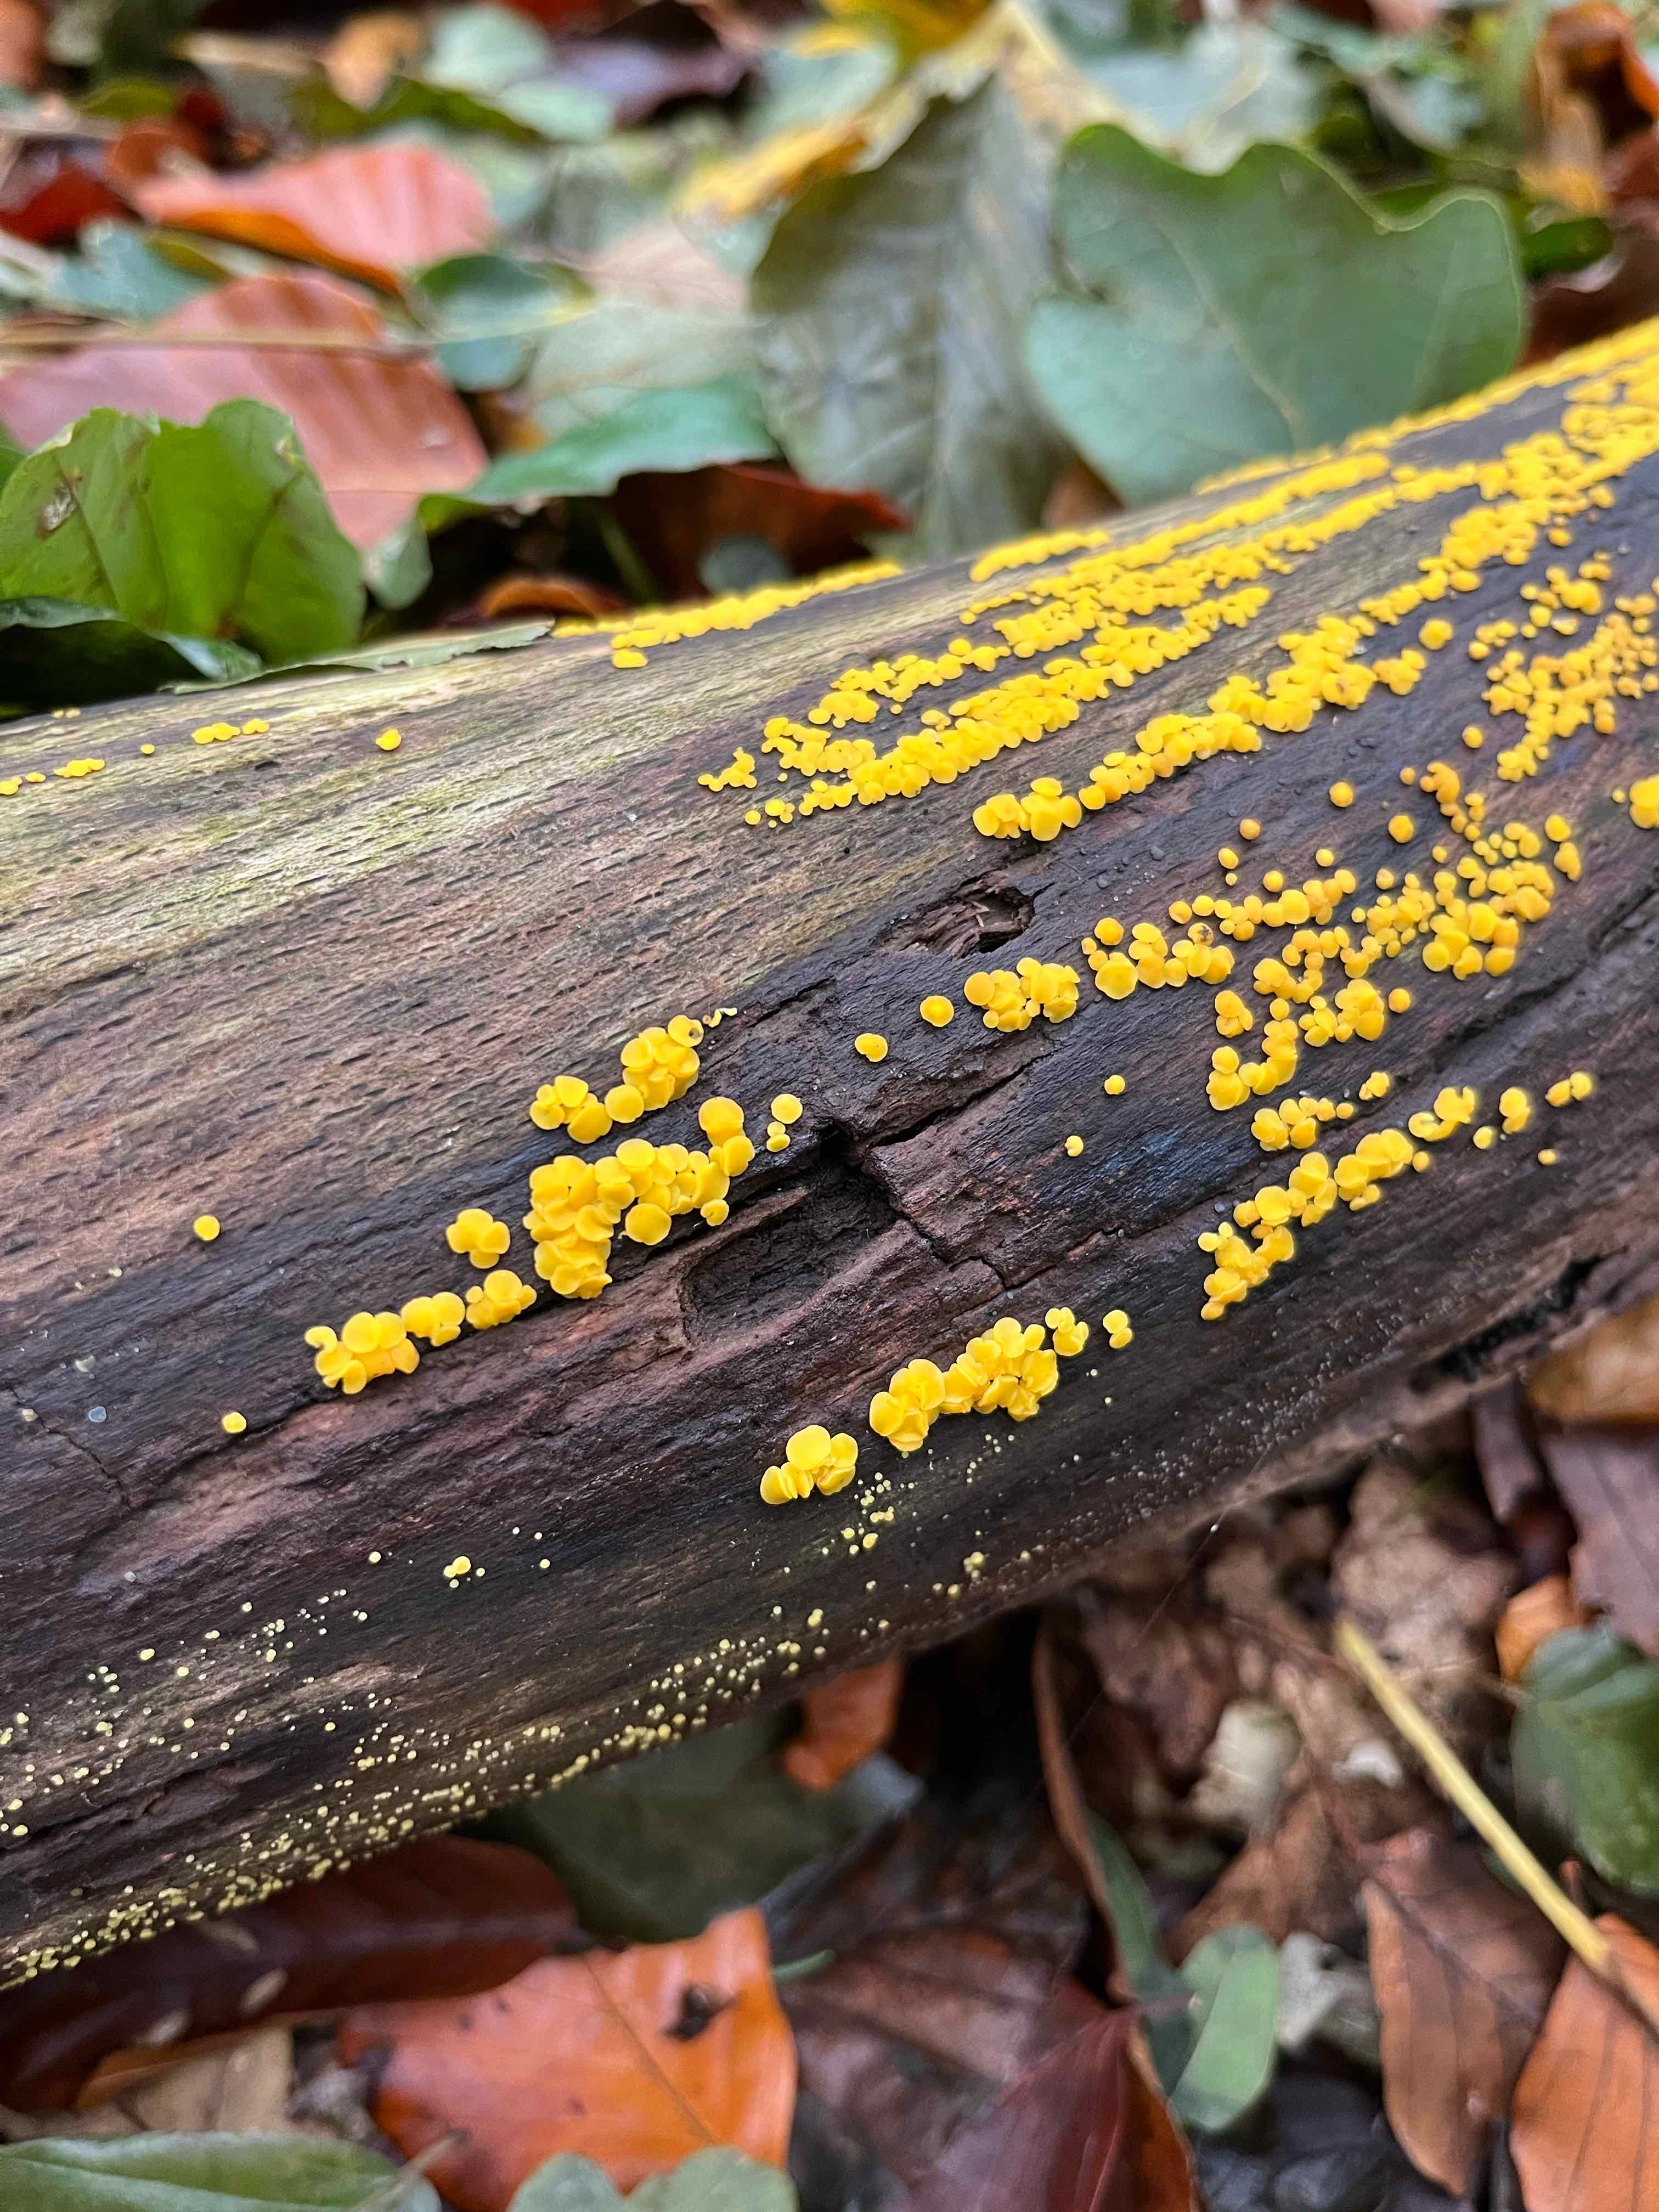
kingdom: Fungi
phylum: Ascomycota
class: Leotiomycetes
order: Helotiales
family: Pezizellaceae
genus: Calycina
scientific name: Calycina citrina
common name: almindelig gulskive
